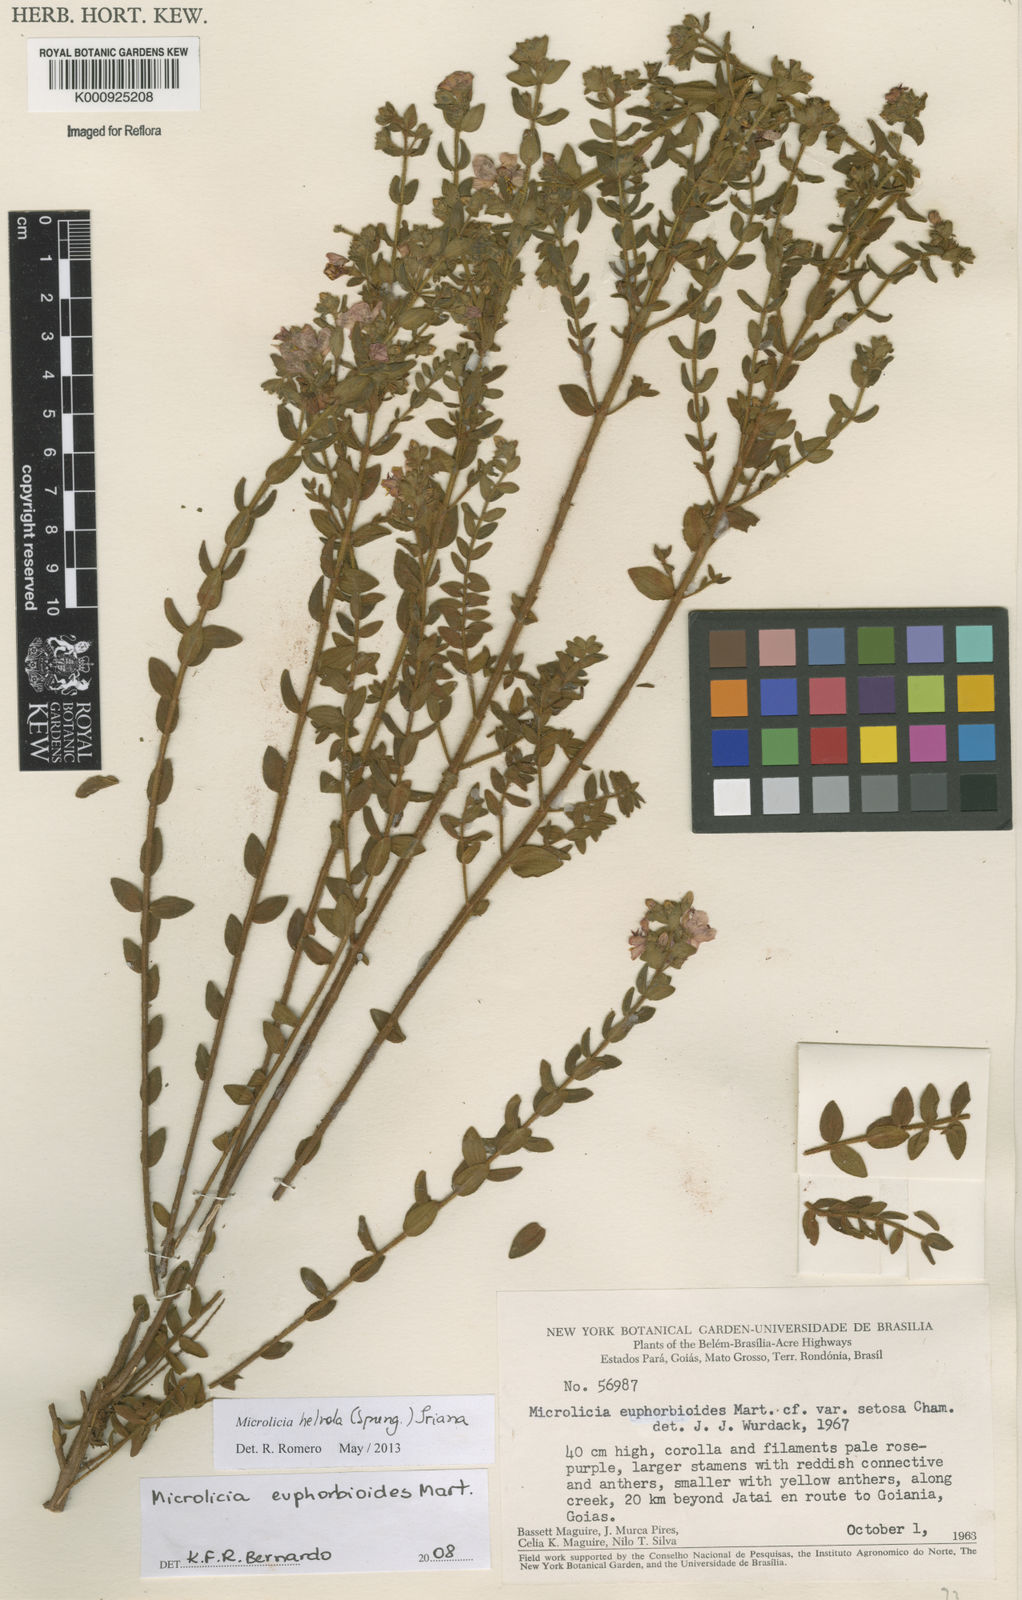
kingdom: Plantae
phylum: Tracheophyta
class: Magnoliopsida
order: Myrtales
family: Melastomataceae
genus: Microlicia
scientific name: Microlicia helvola
